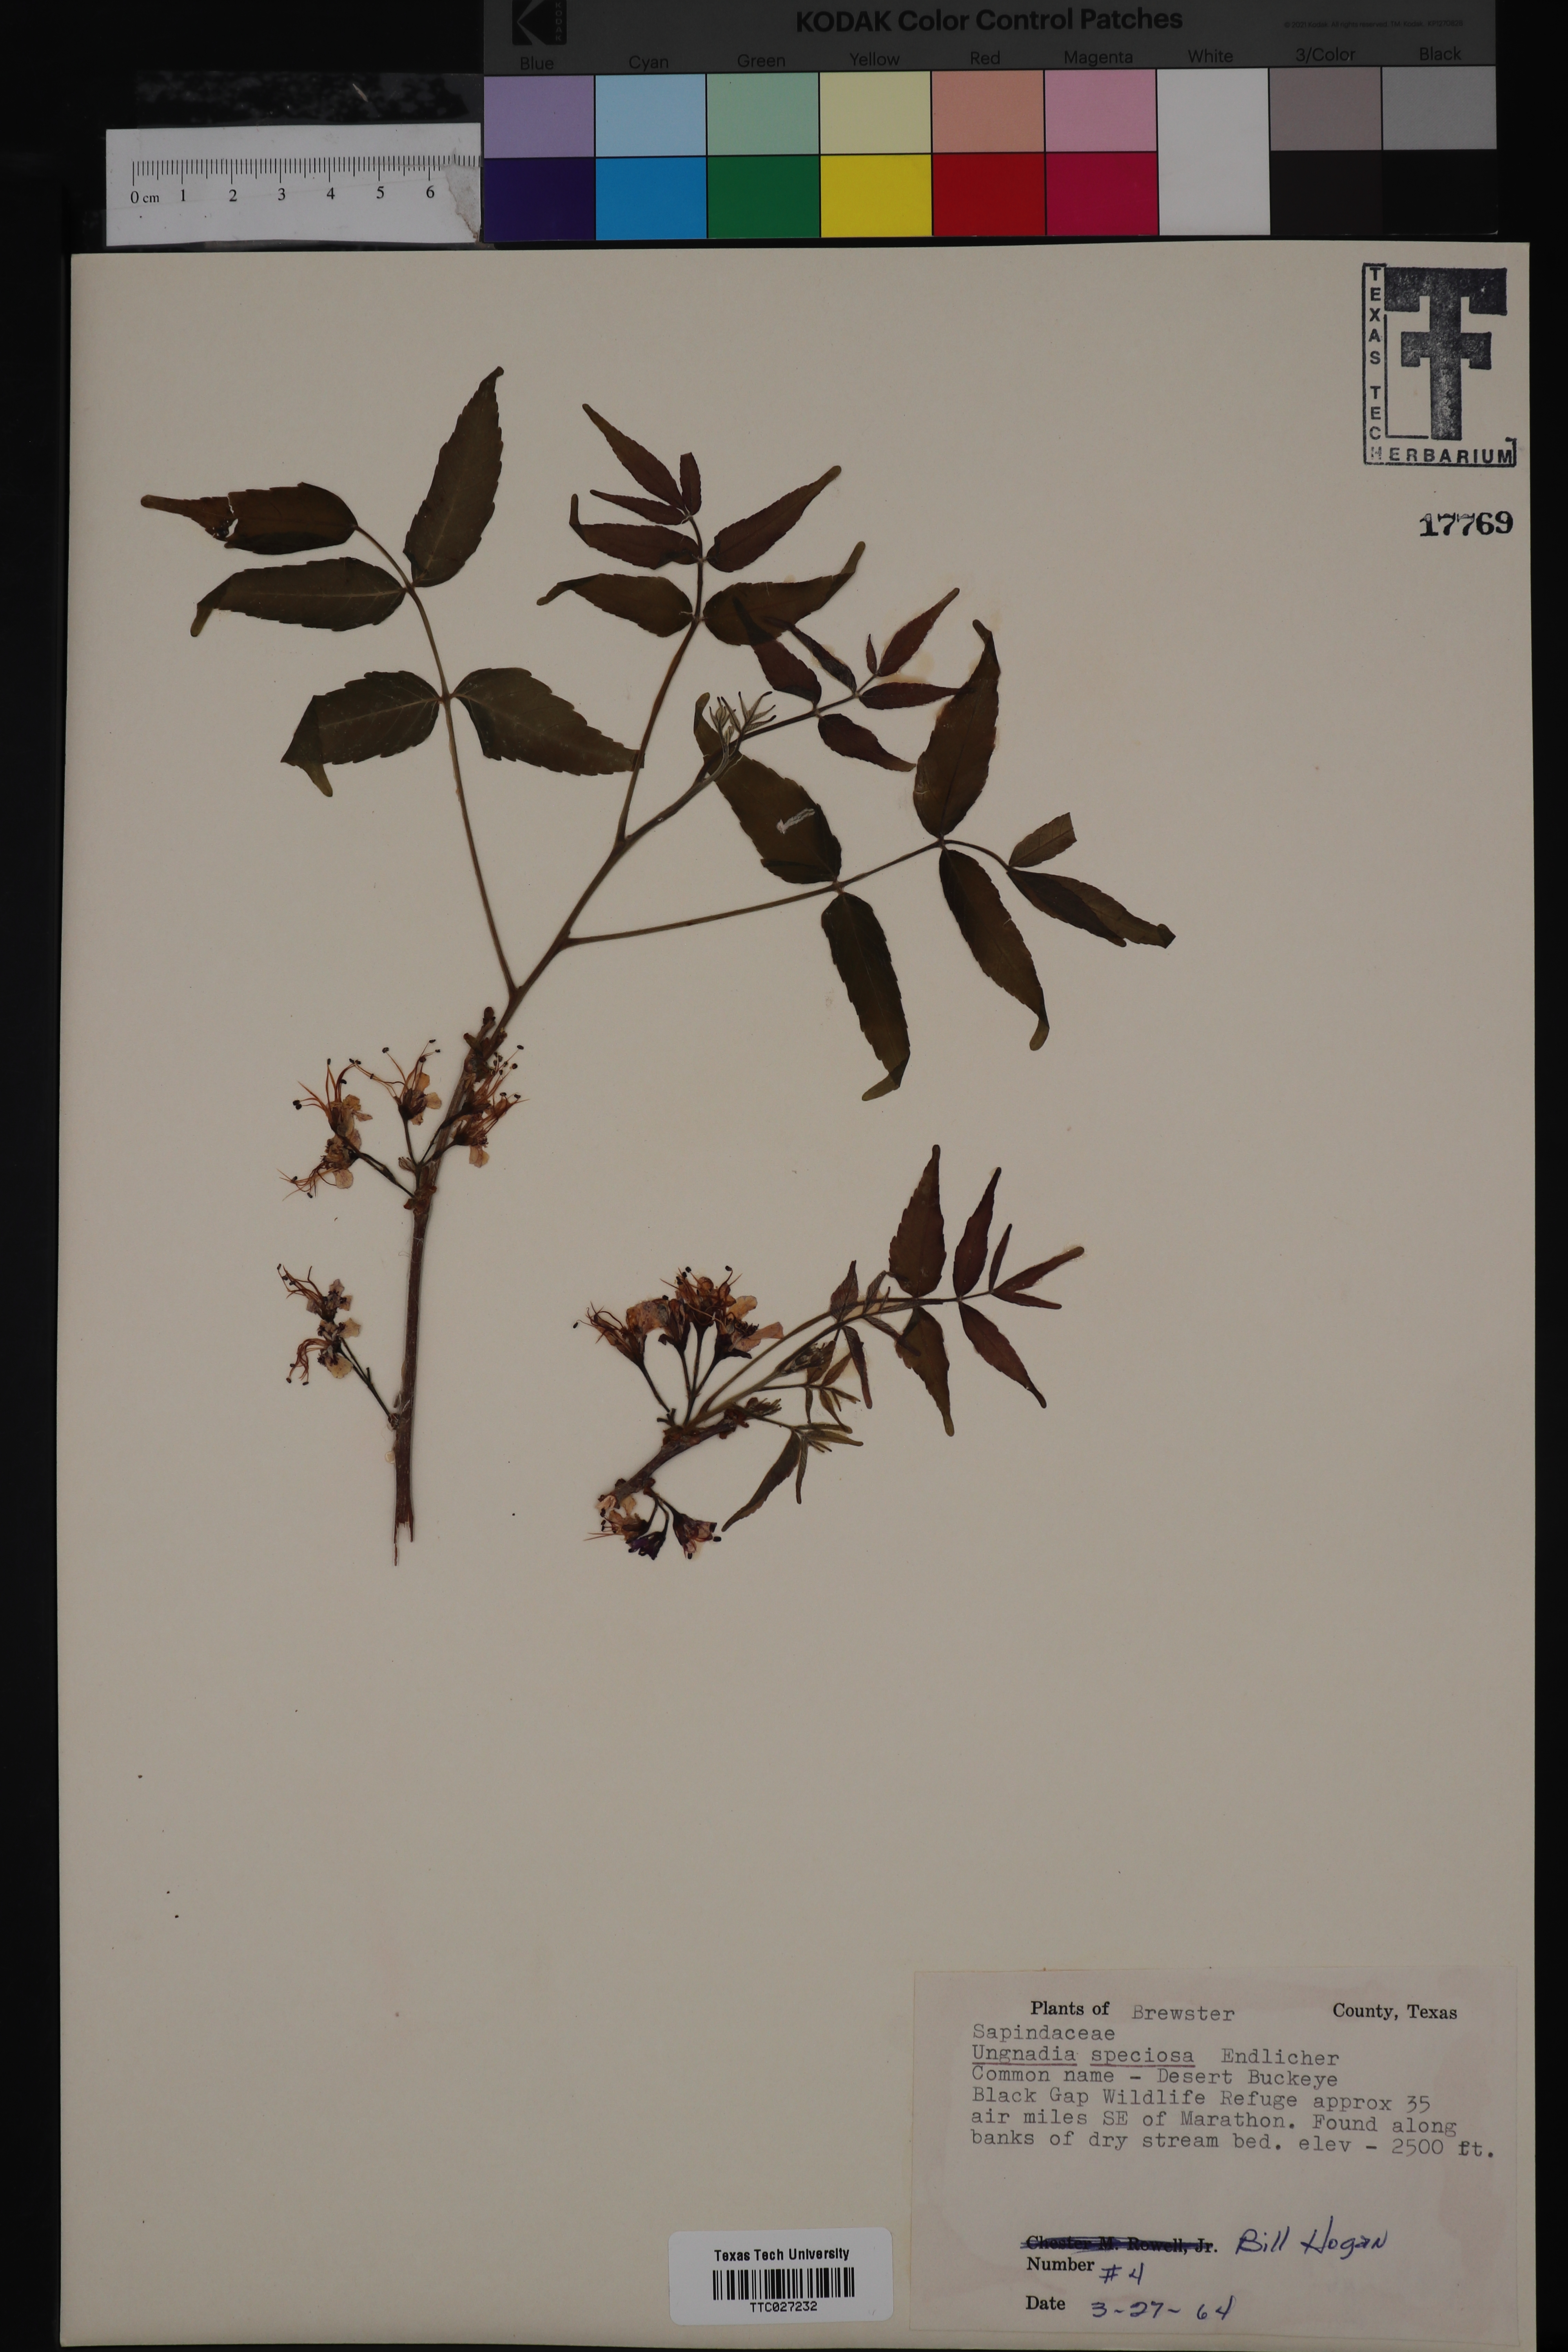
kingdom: Plantae
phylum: Tracheophyta
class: Magnoliopsida
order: Sapindales
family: Sapindaceae
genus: Ungnadia
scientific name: Ungnadia speciosa
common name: Texas-buckeye
